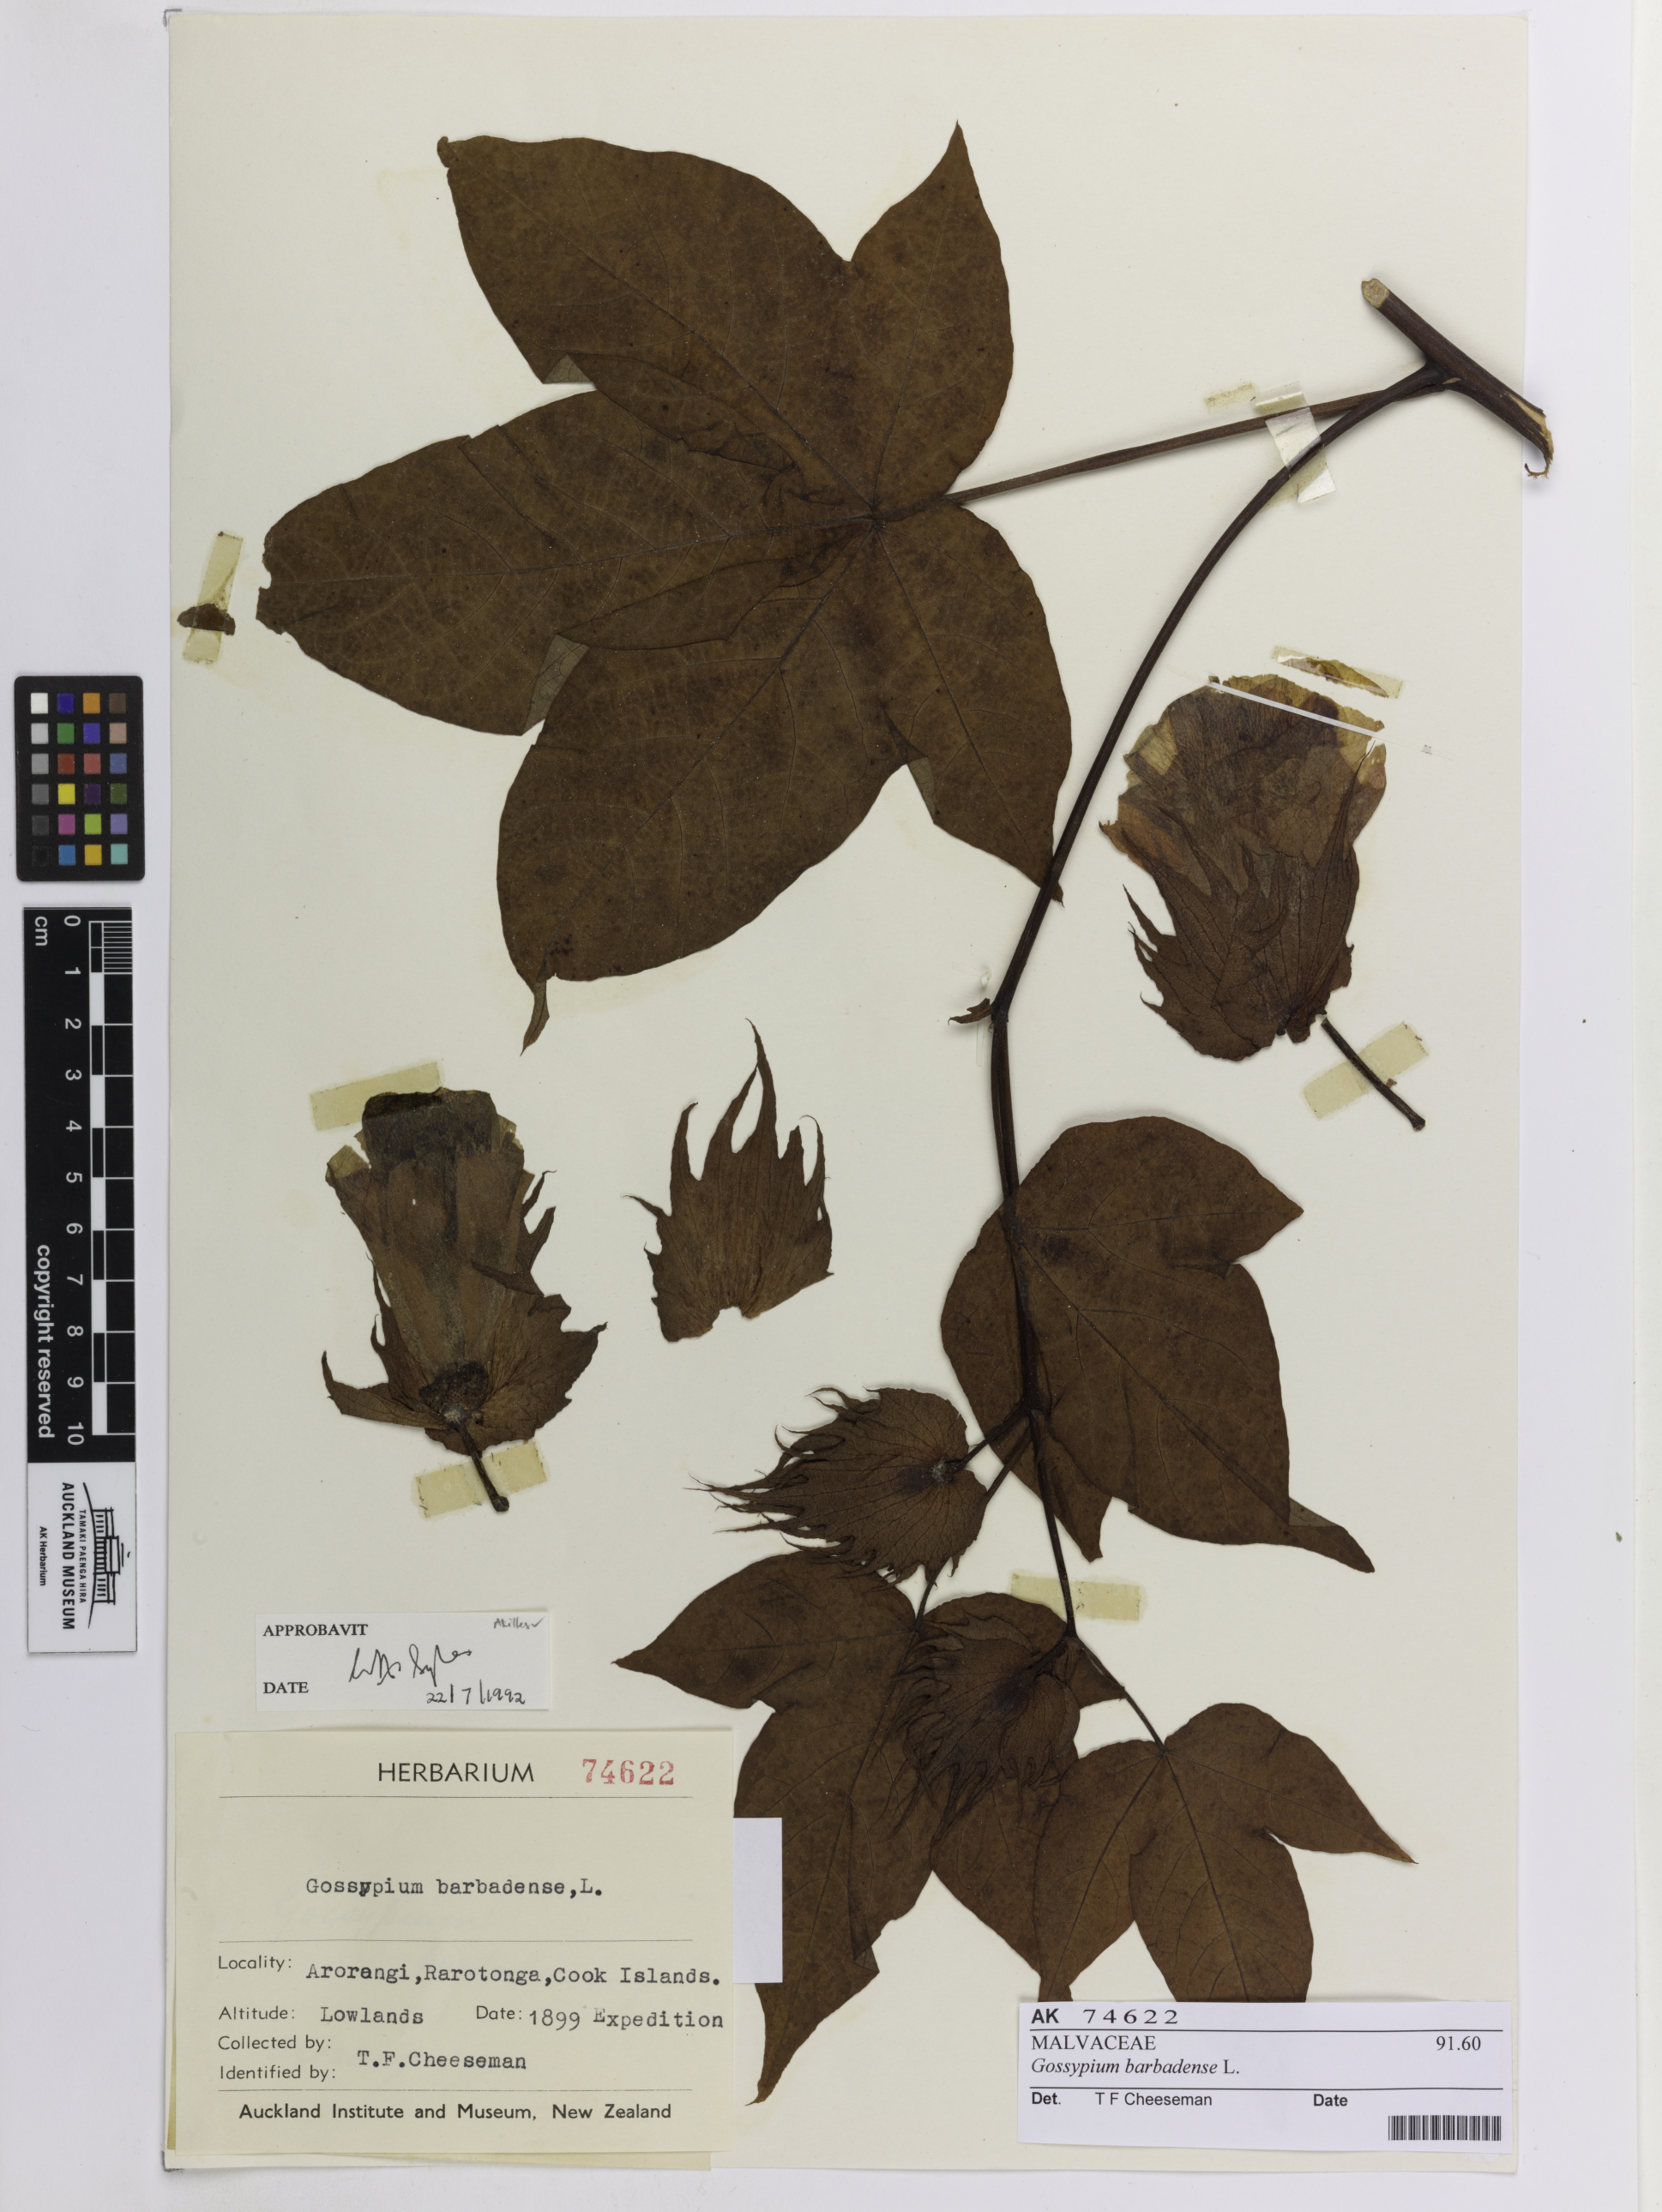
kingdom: Plantae
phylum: Tracheophyta
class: Magnoliopsida
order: Malvales
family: Malvaceae
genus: Gossypium
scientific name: Gossypium barbadense
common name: Creole cotton
